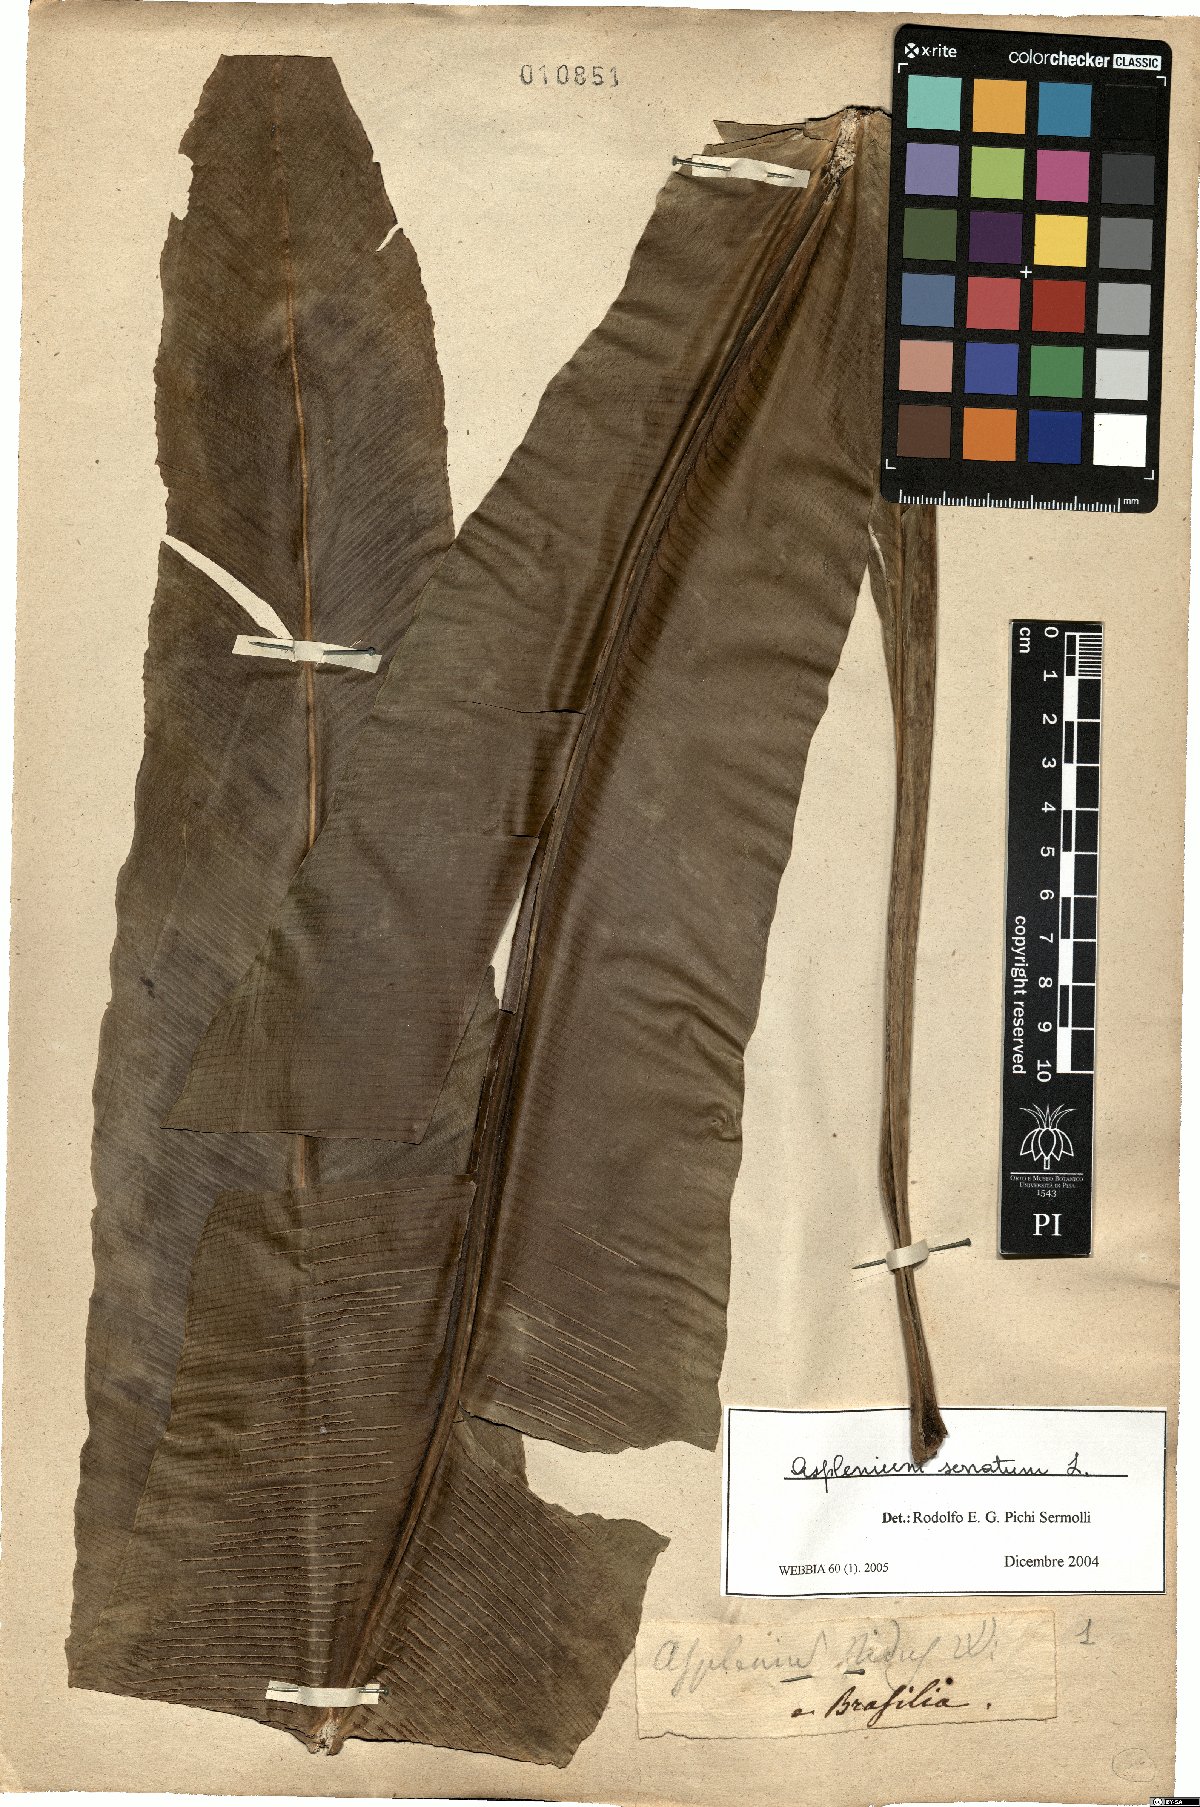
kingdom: Plantae
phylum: Tracheophyta
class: Polypodiopsida
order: Polypodiales
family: Aspleniaceae
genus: Asplenium
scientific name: Asplenium serratum
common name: Wild birdnest fern
